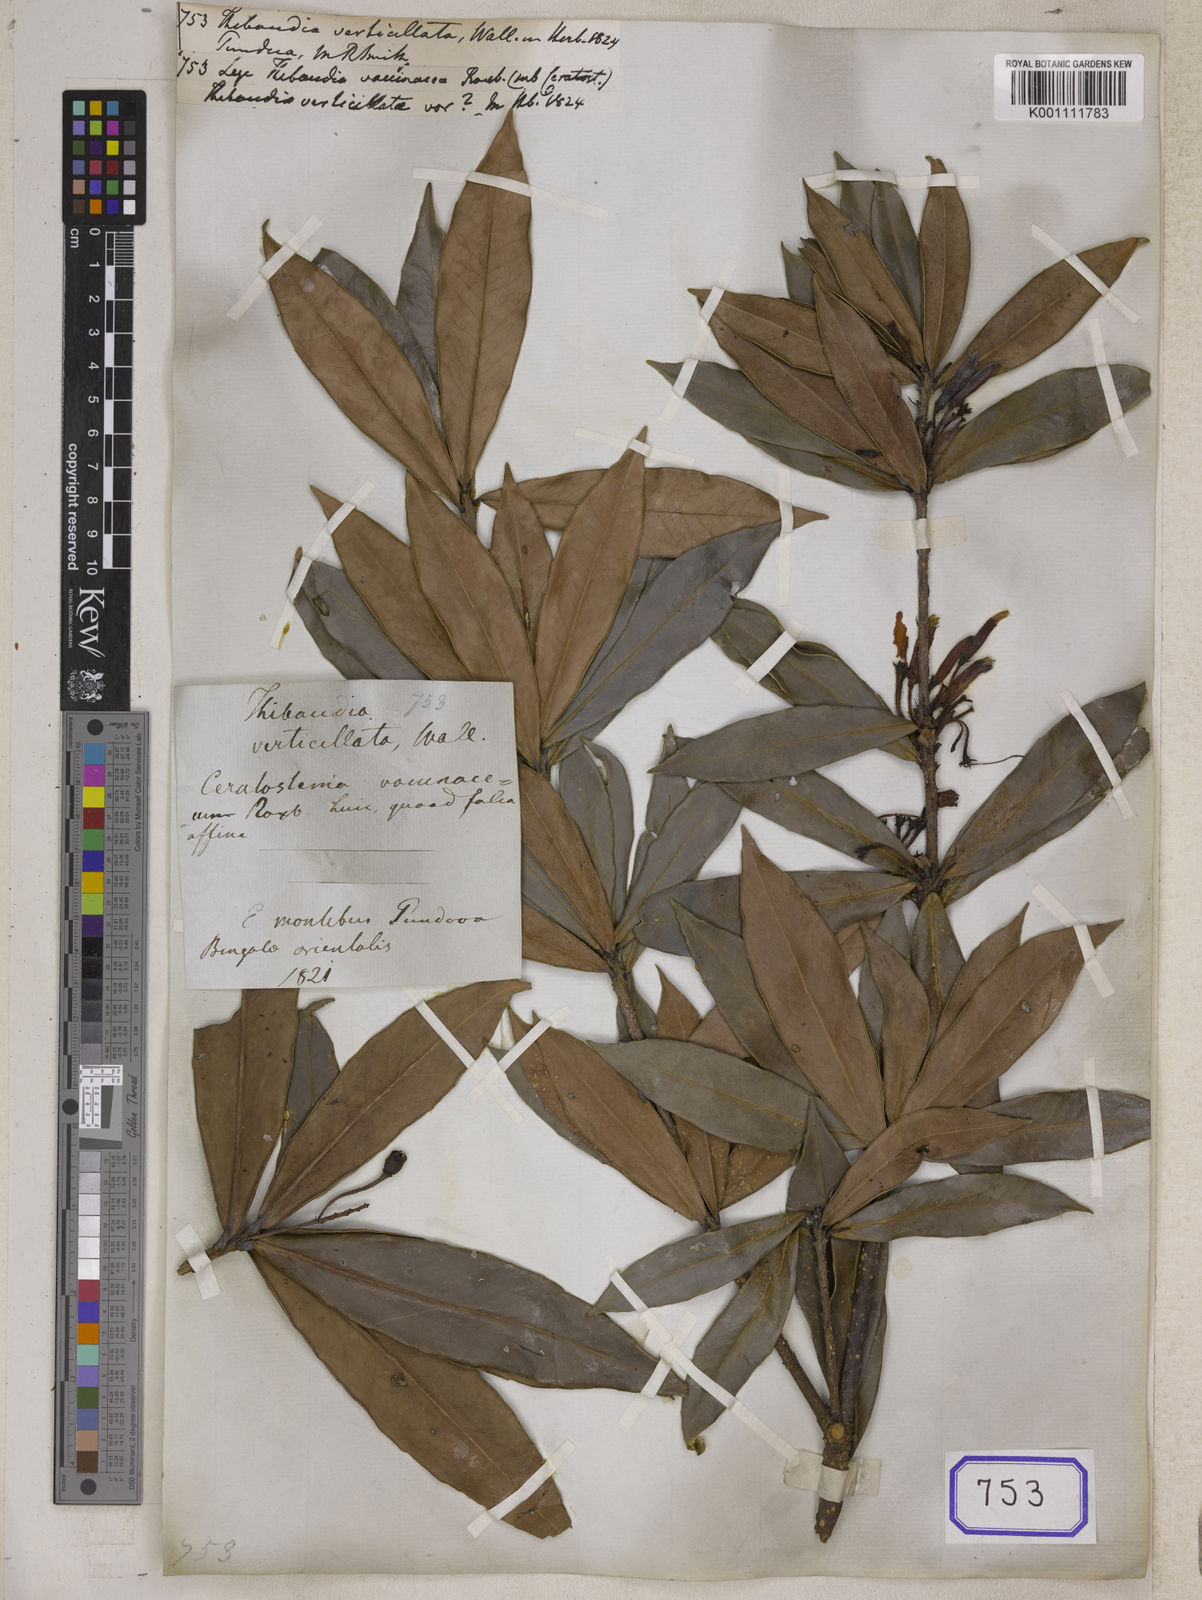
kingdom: Plantae
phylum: Tracheophyta
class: Magnoliopsida
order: Ericales
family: Ericaceae
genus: Agapetes
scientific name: Agapetes setigera
